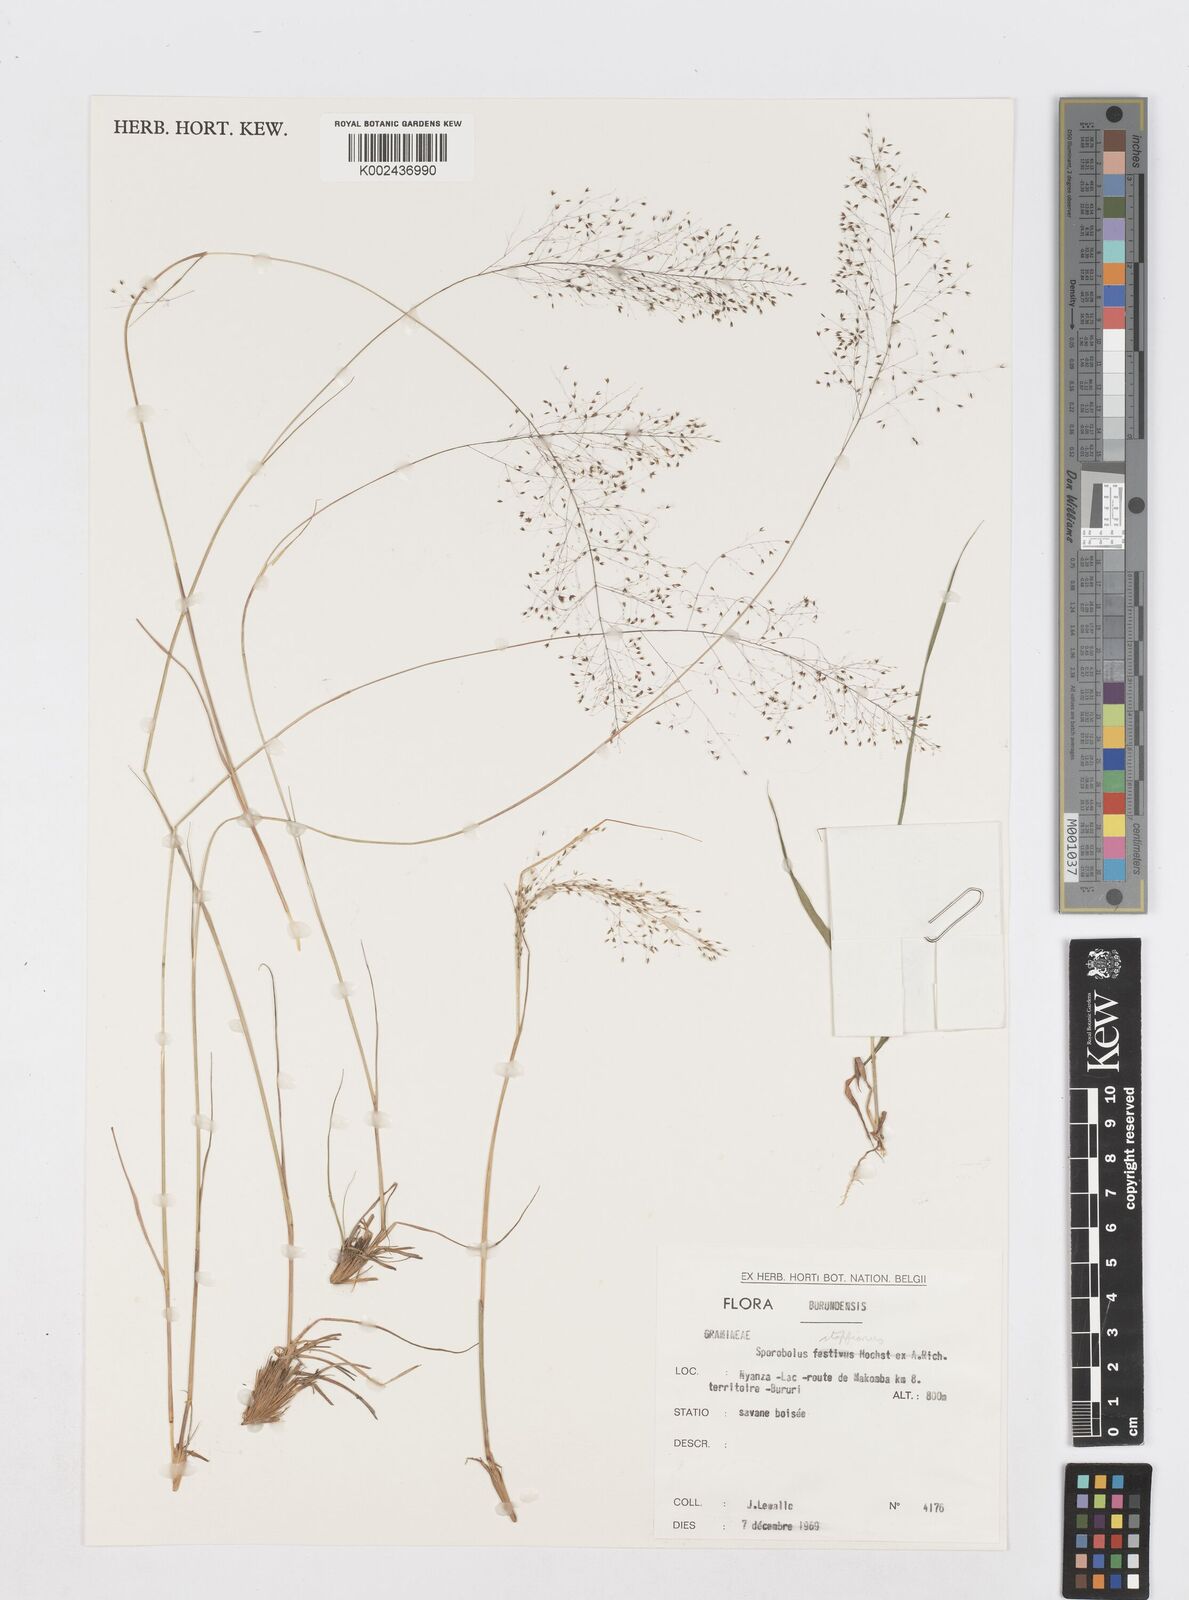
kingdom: Plantae
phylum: Tracheophyta
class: Liliopsida
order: Poales
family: Poaceae
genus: Sporobolus
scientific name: Sporobolus stapfianus
